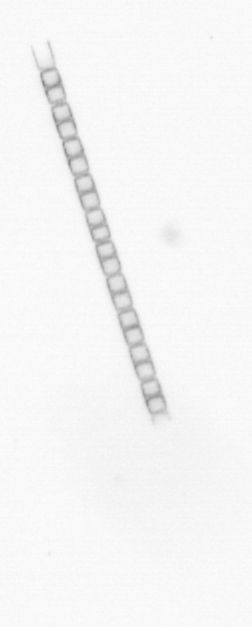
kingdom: Chromista
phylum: Ochrophyta
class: Bacillariophyceae
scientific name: Bacillariophyceae
